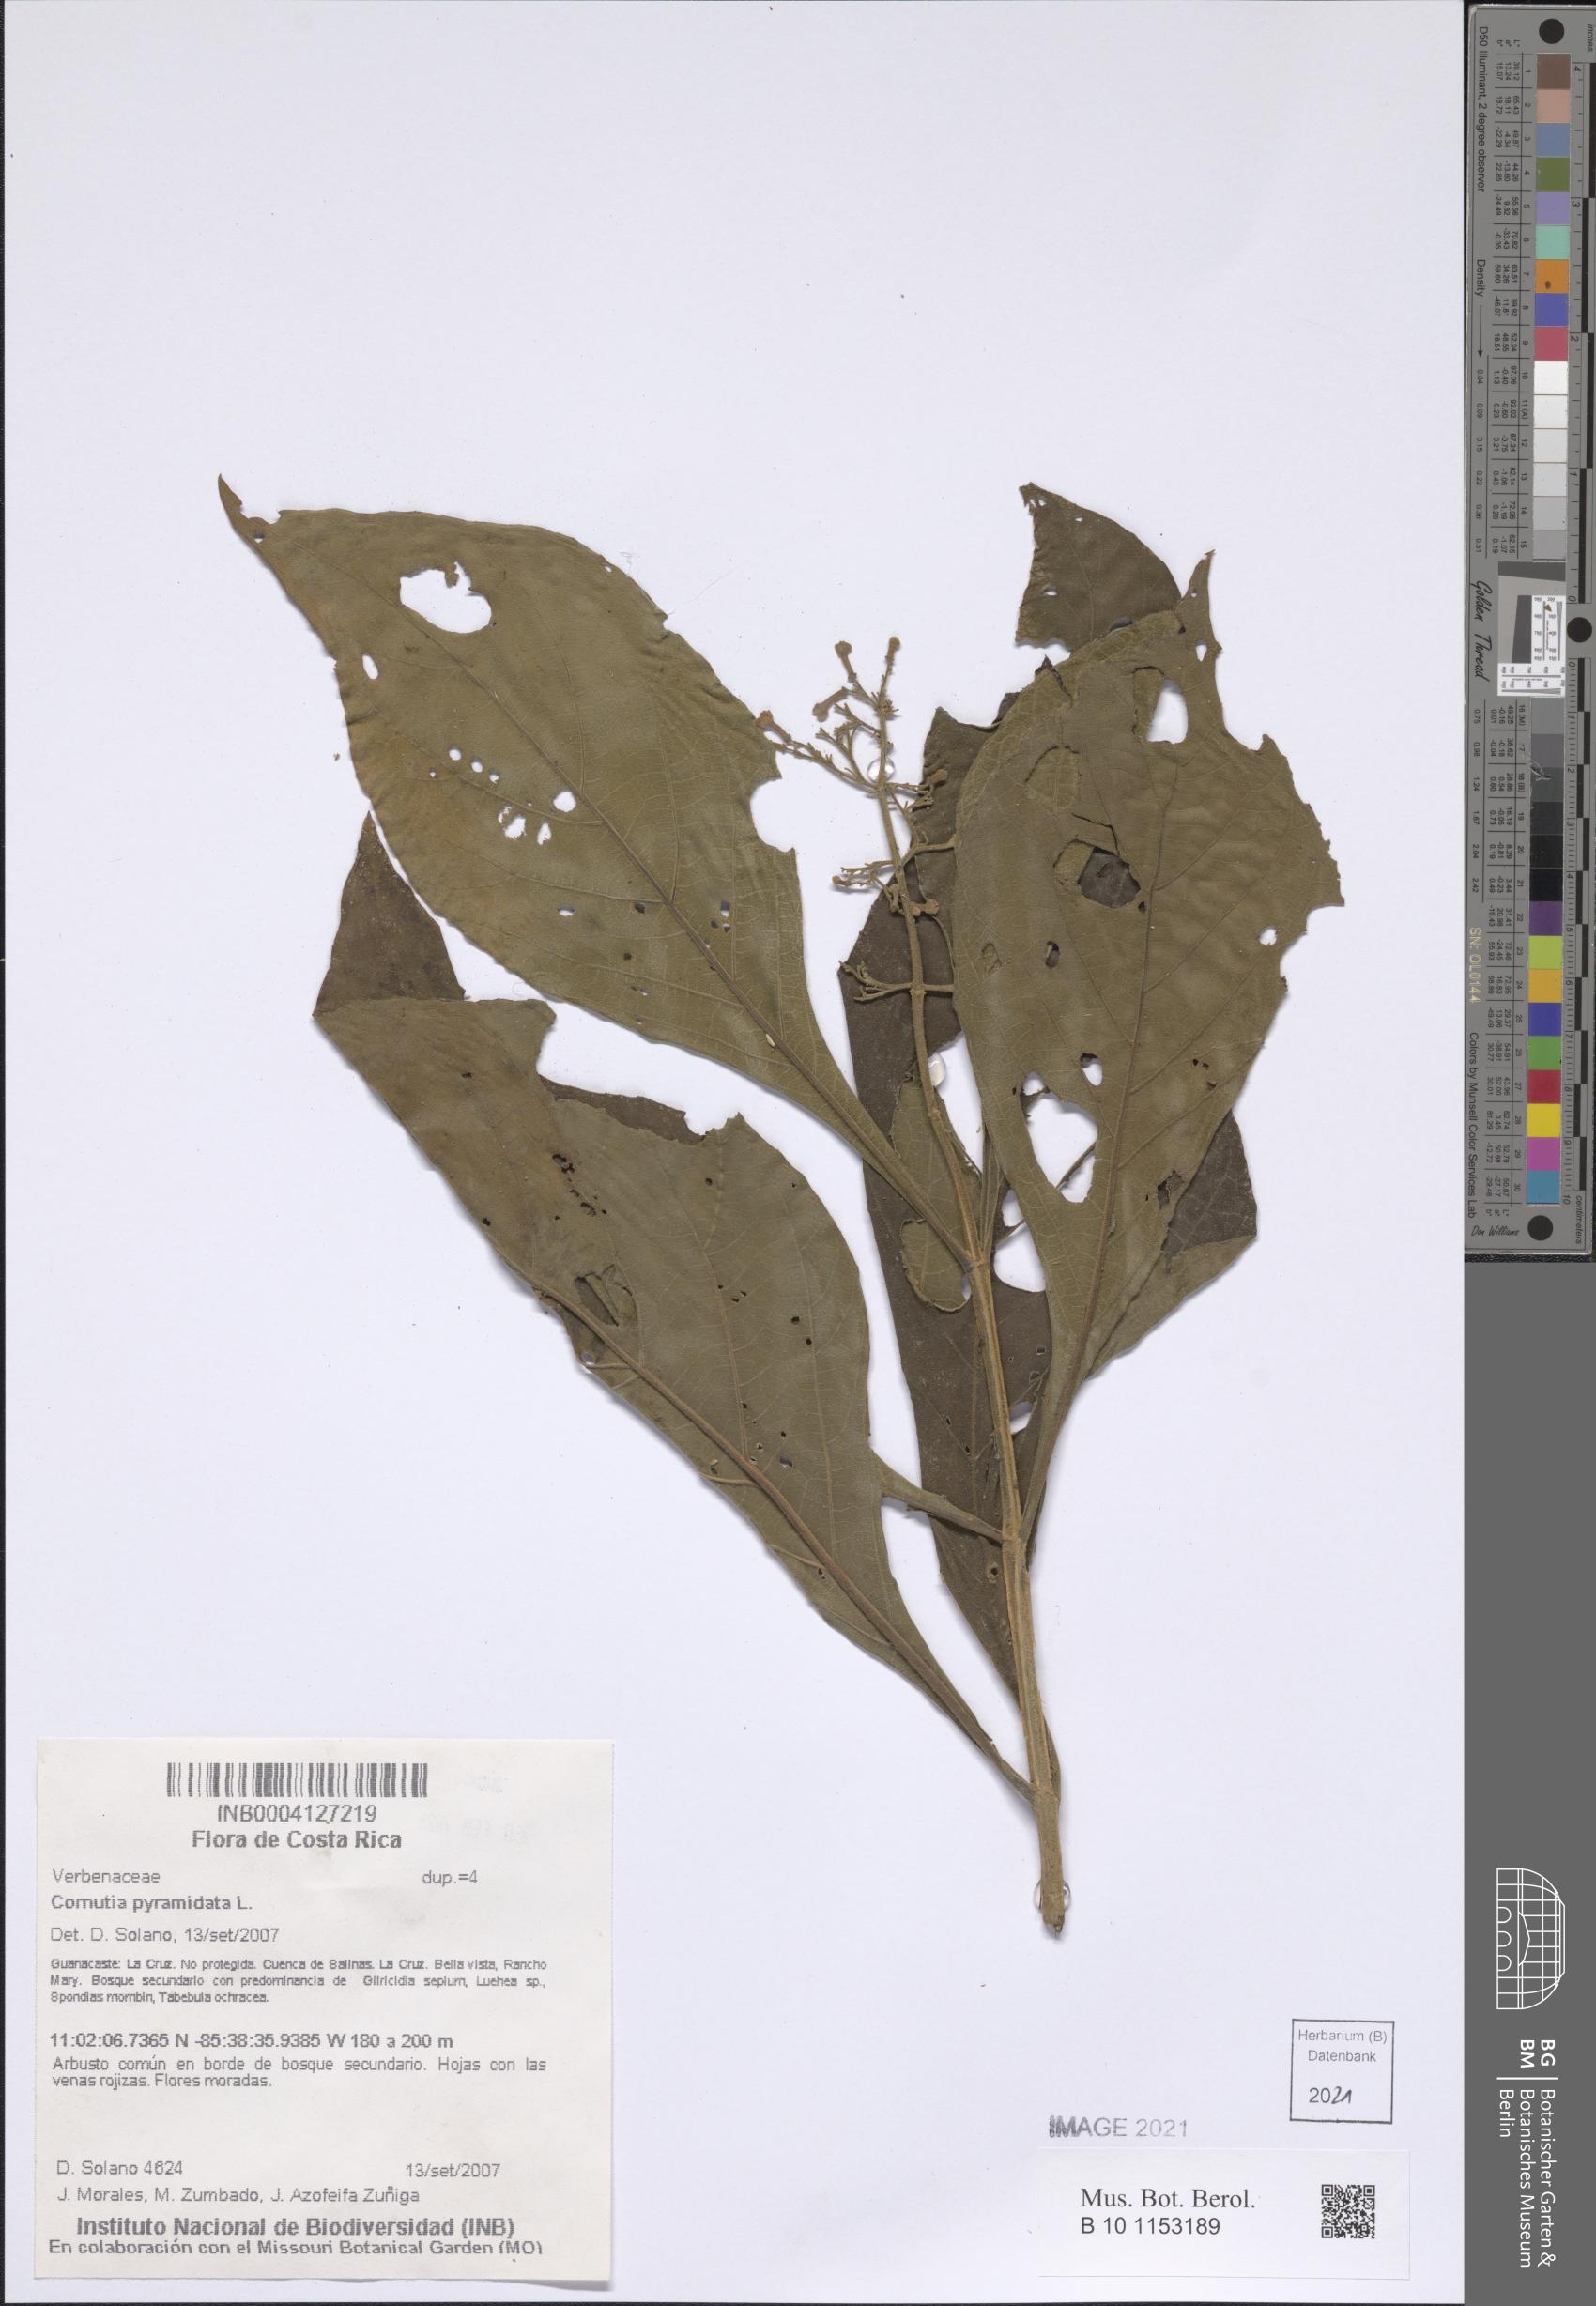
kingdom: Plantae
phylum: Tracheophyta
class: Magnoliopsida
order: Lamiales
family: Lamiaceae
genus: Cornutia
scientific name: Cornutia pyramidata
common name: Azulejo
